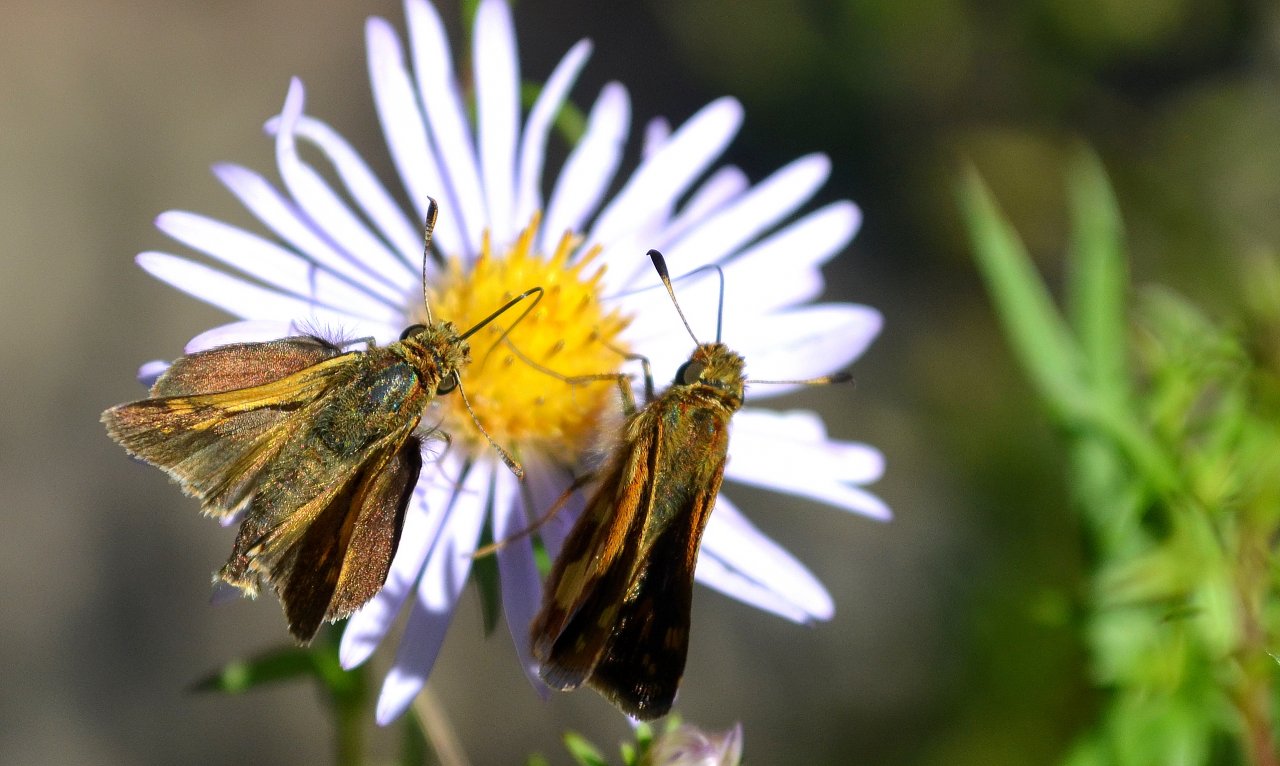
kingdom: Animalia
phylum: Arthropoda
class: Insecta
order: Lepidoptera
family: Hesperiidae
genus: Polites
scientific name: Polites coras
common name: Peck's Skipper
